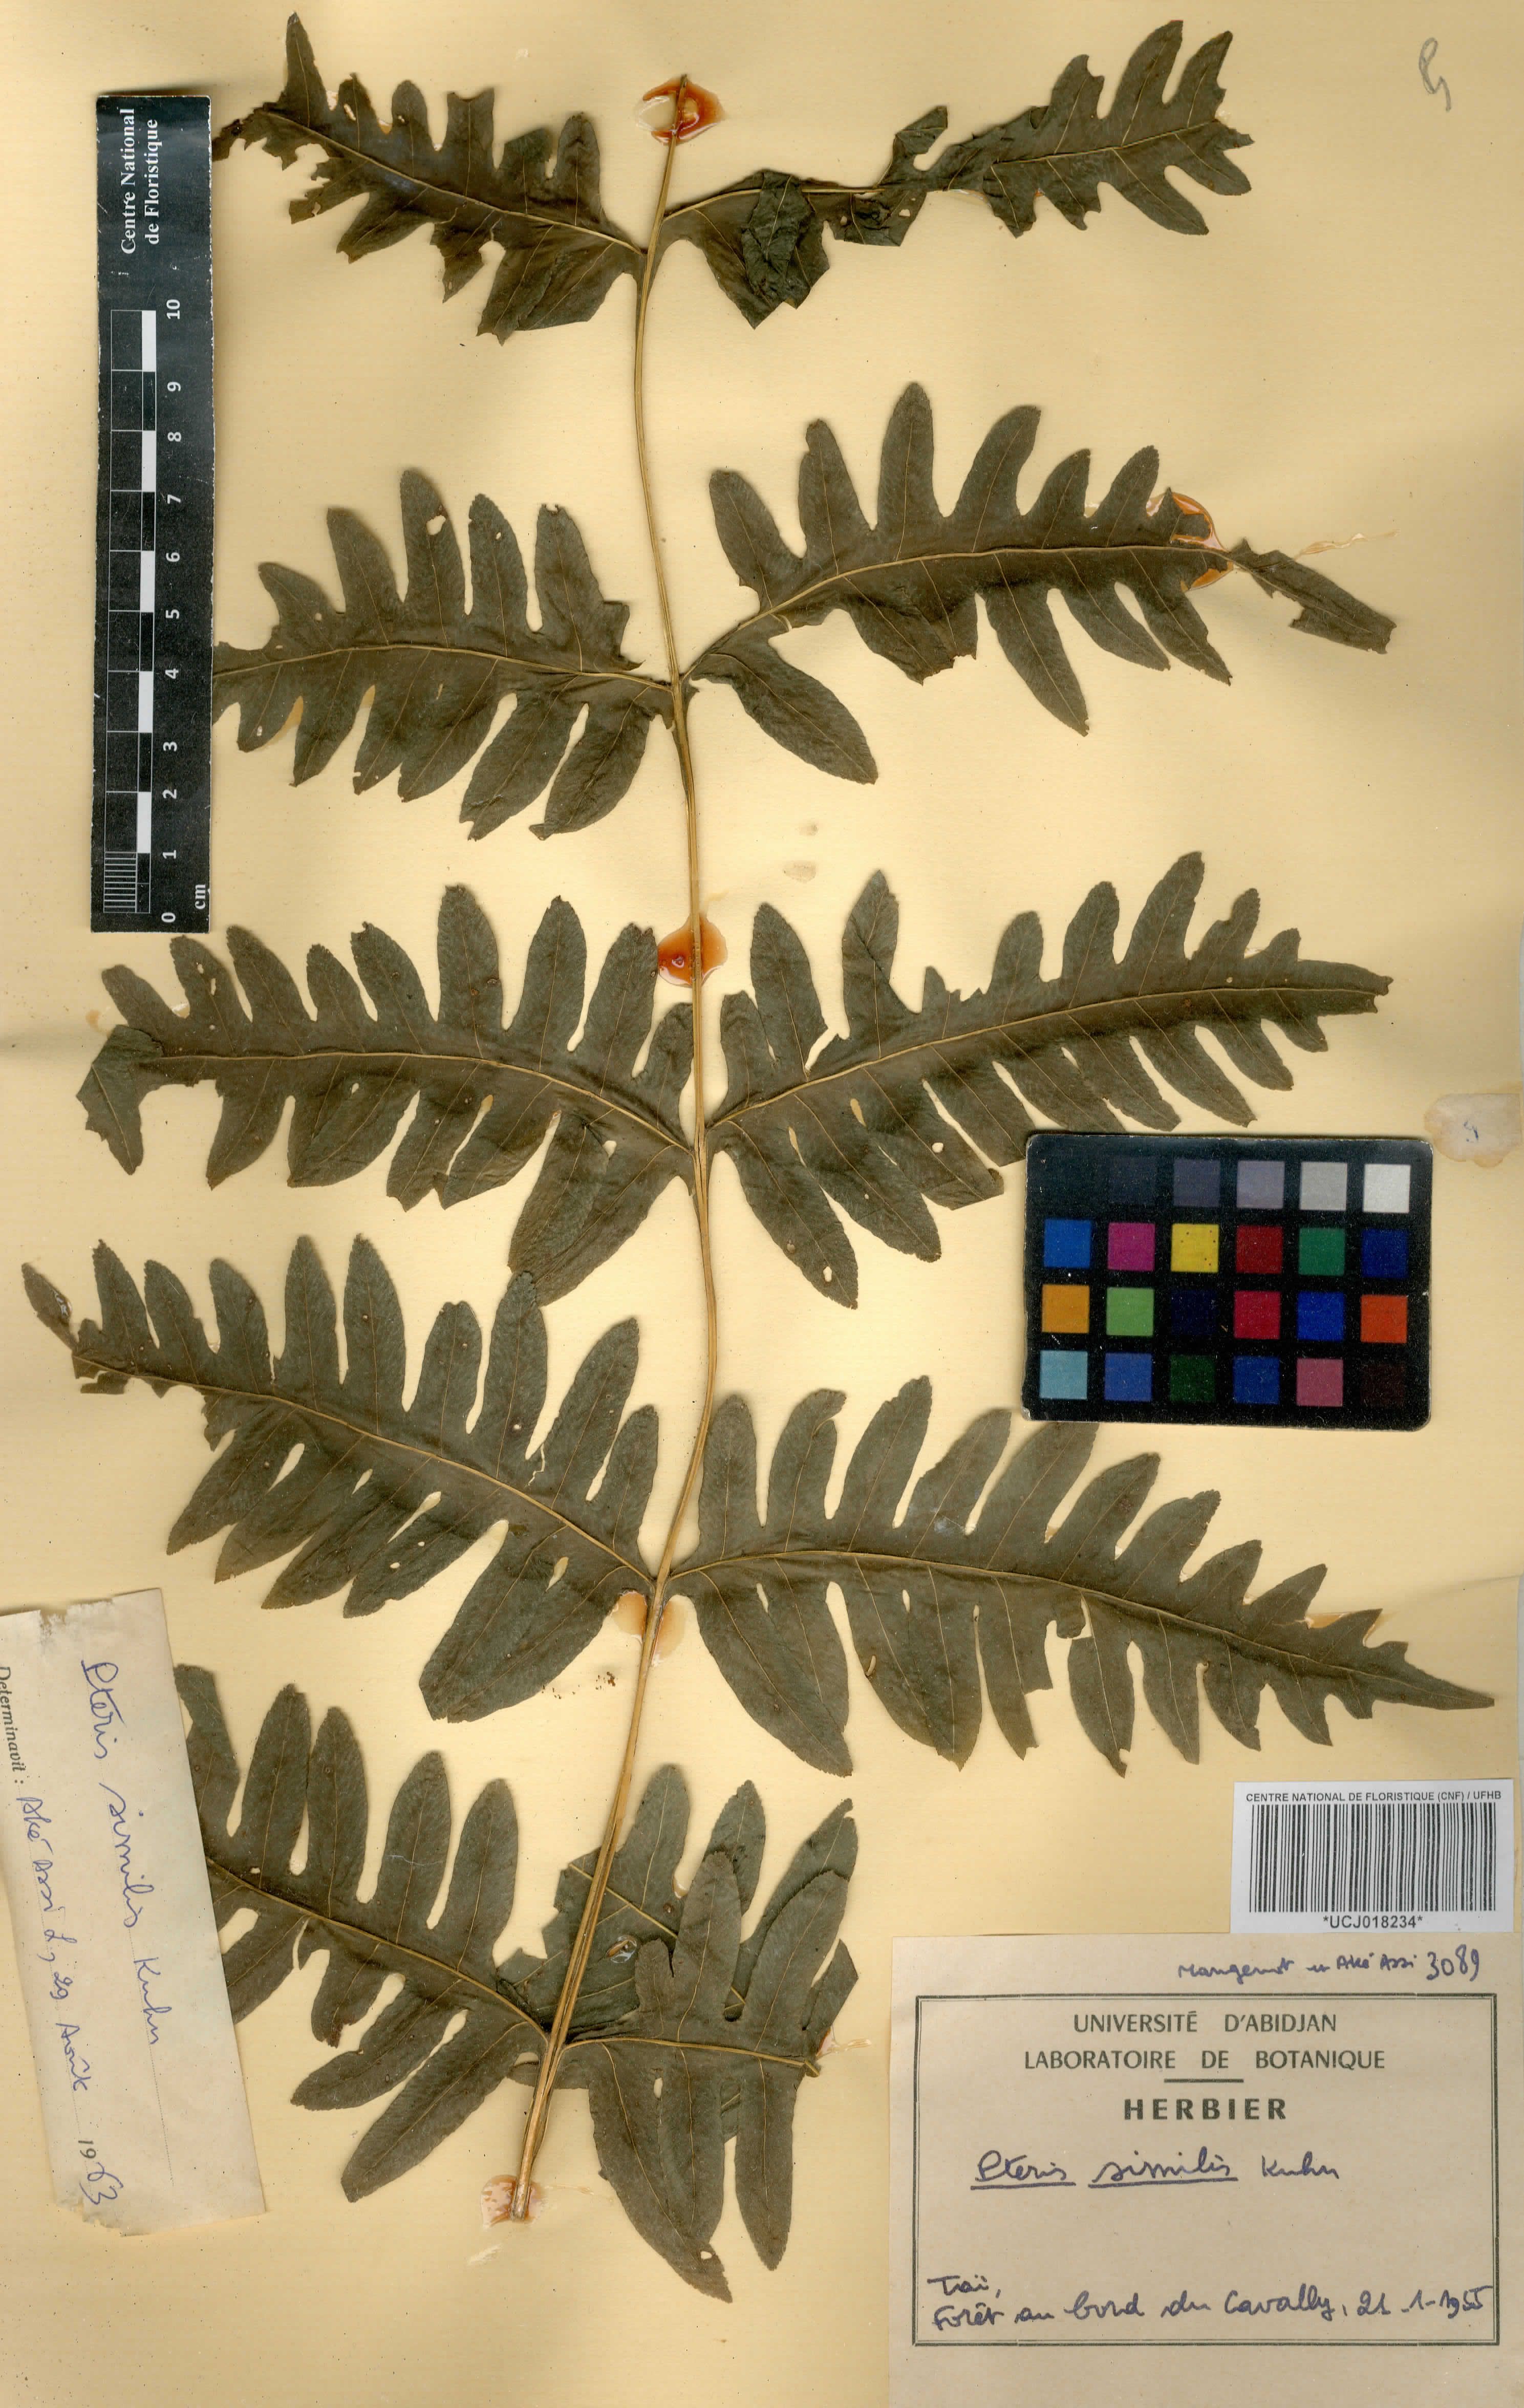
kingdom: Plantae
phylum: Tracheophyta
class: Polypodiopsida
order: Polypodiales
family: Pteridaceae
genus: Pteris
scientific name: Pteris similis
